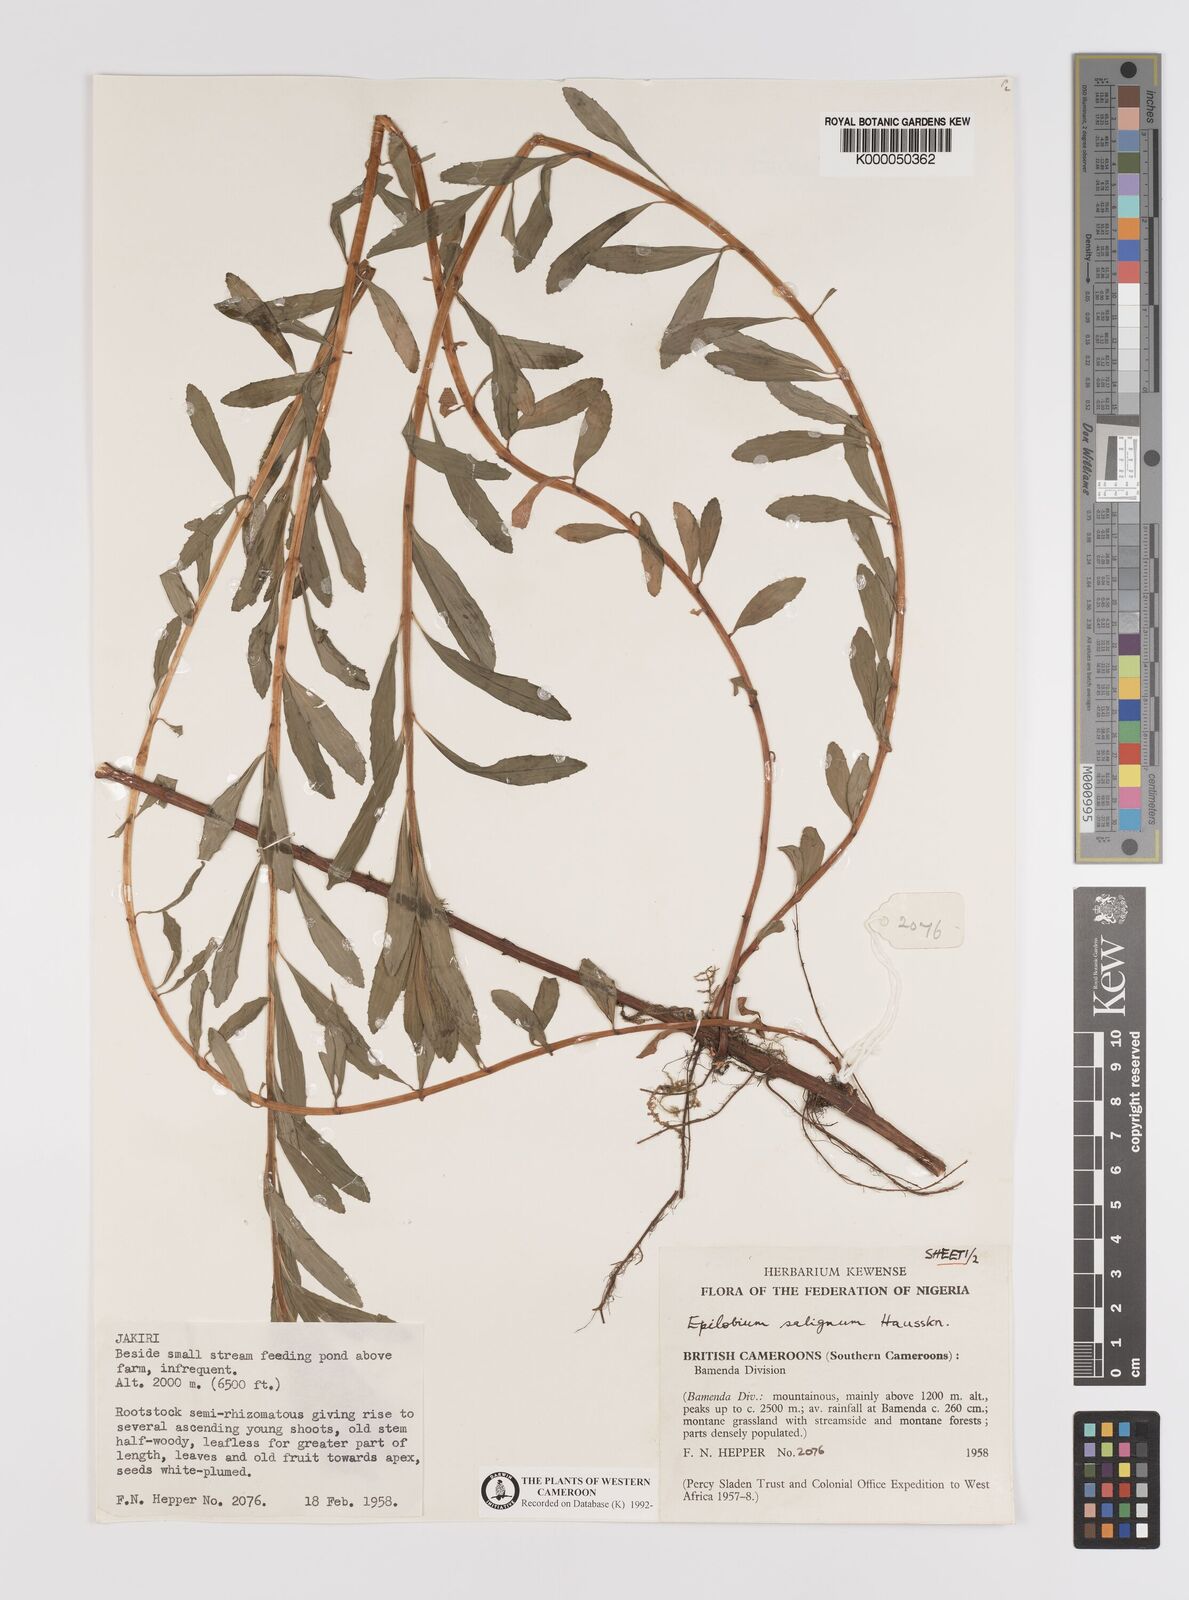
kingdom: Plantae
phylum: Tracheophyta
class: Magnoliopsida
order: Myrtales
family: Onagraceae
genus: Epilobium
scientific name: Epilobium salignum
